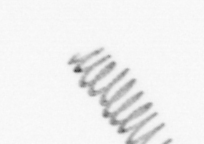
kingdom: Chromista
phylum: Ochrophyta
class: Bacillariophyceae
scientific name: Bacillariophyceae
